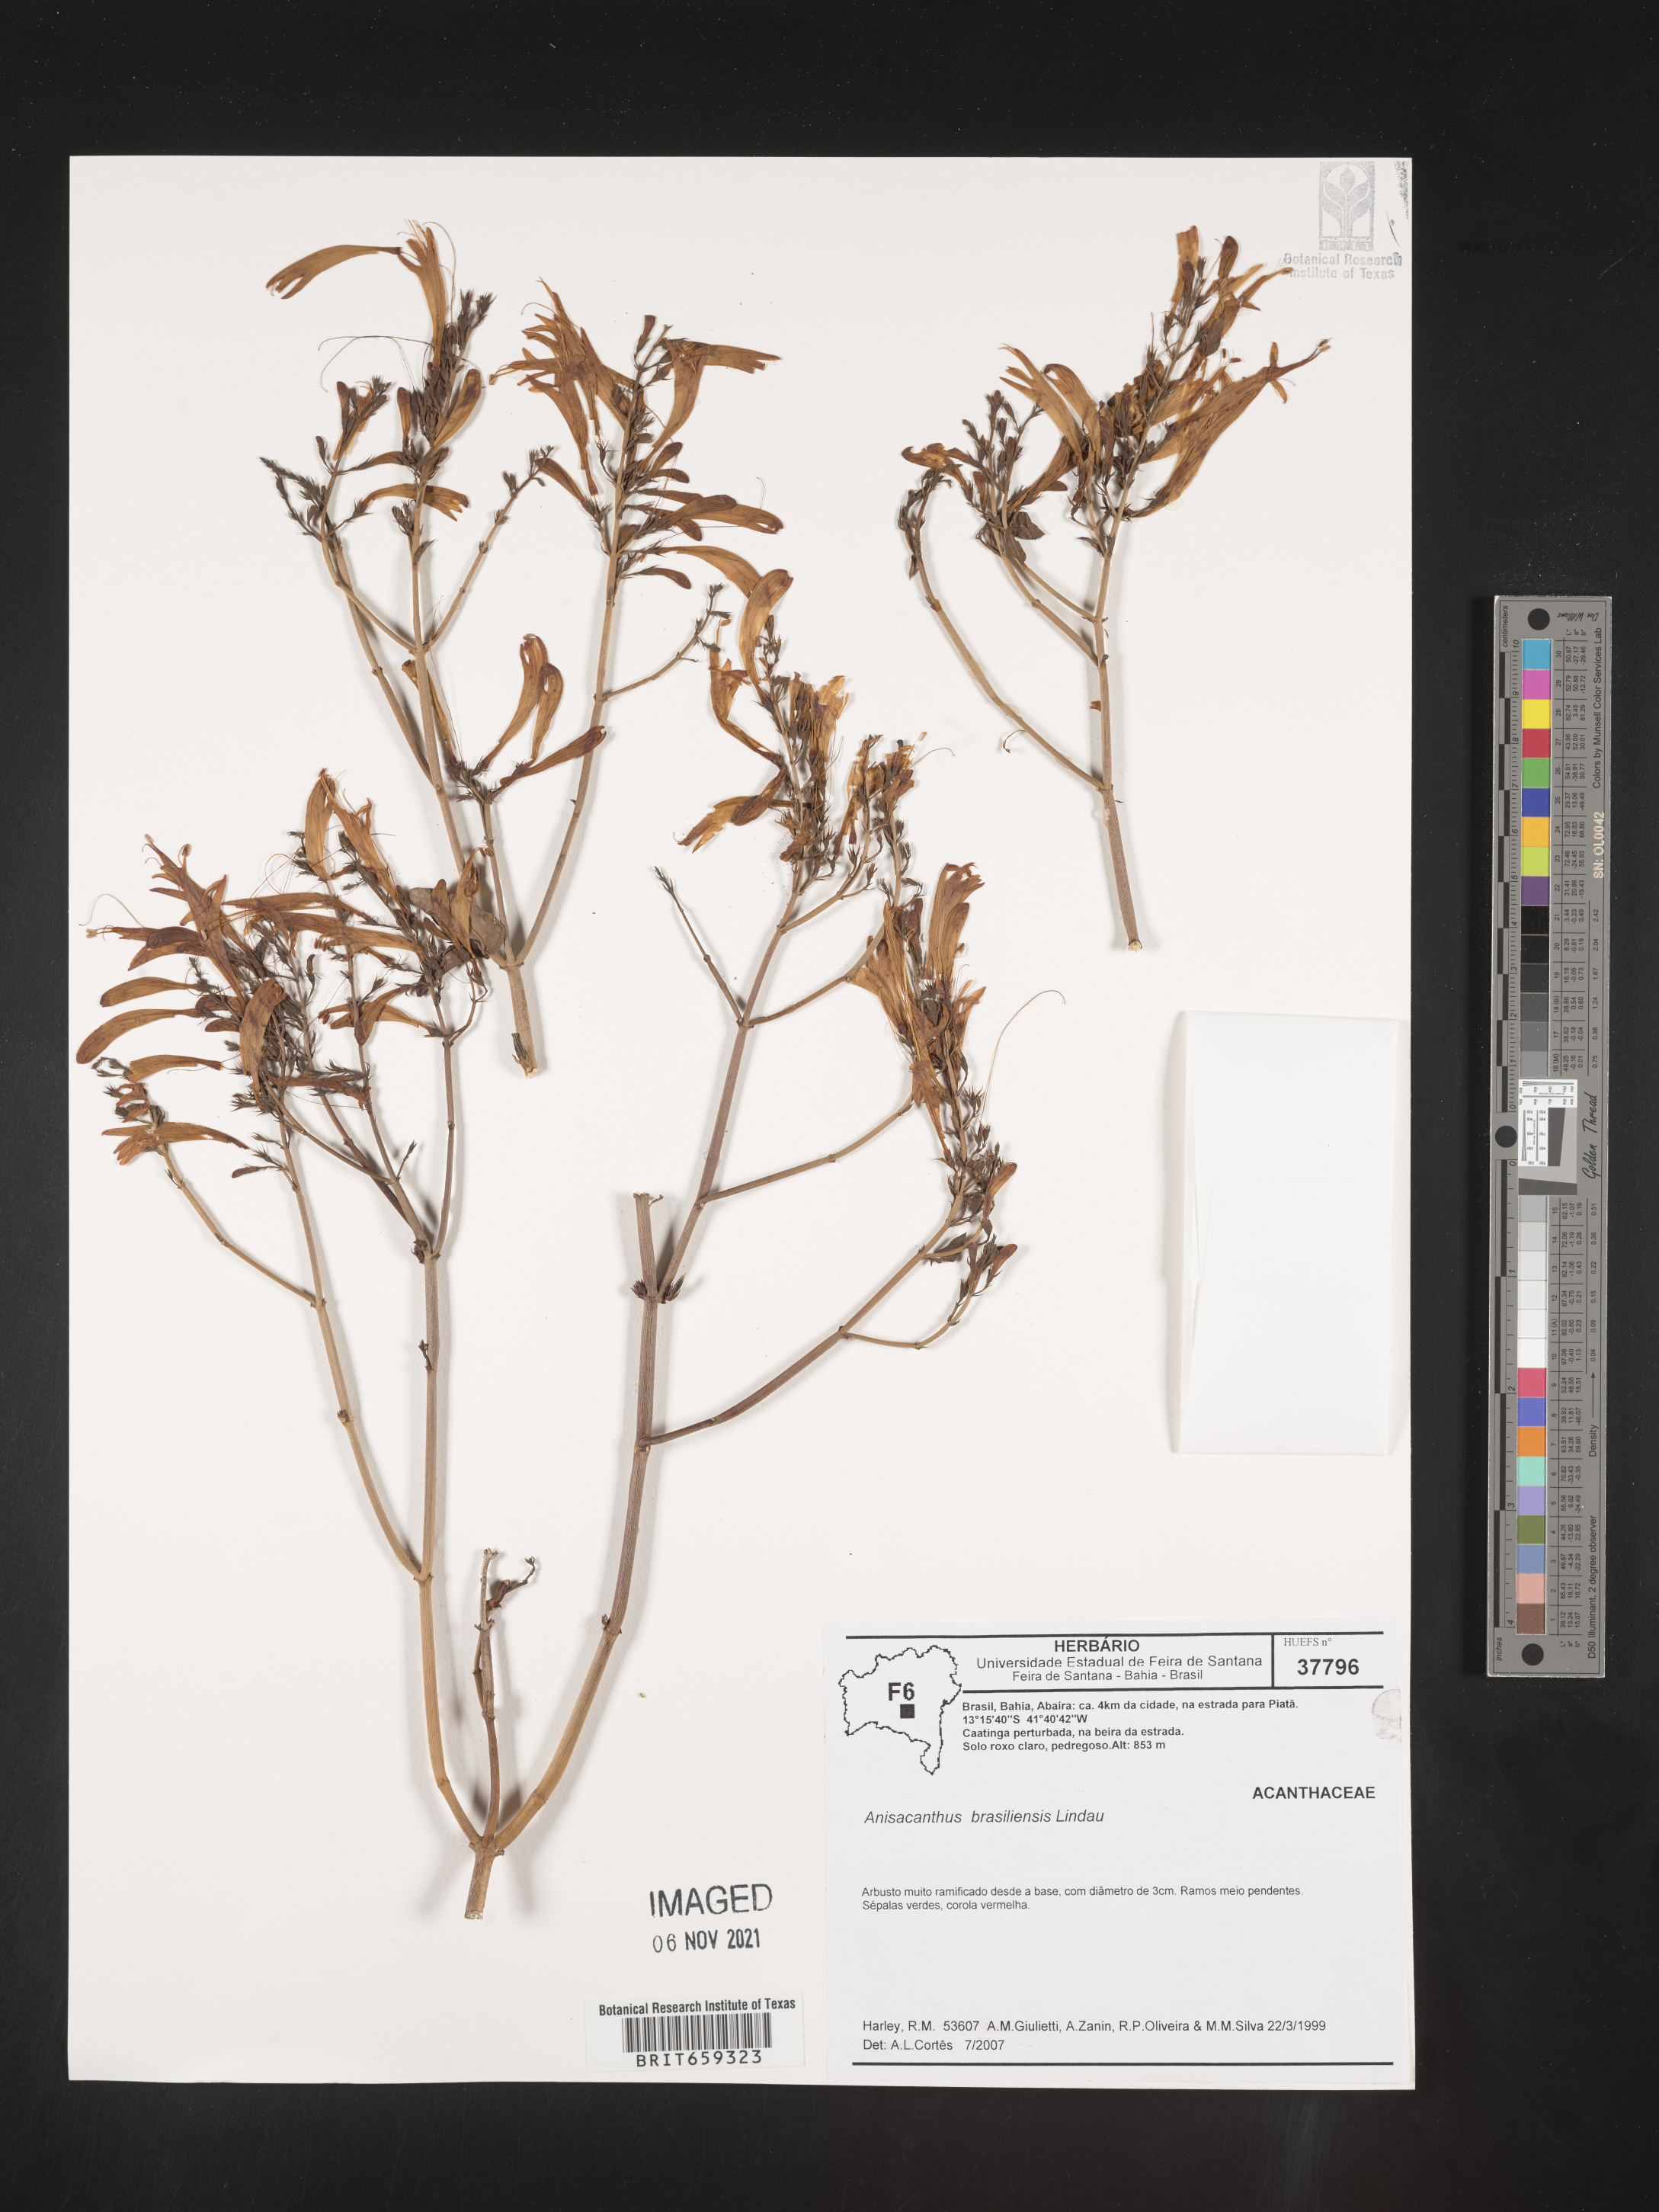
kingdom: Plantae
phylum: Tracheophyta
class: Magnoliopsida
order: Lamiales
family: Acanthaceae
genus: Anisacanthus
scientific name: Anisacanthus
